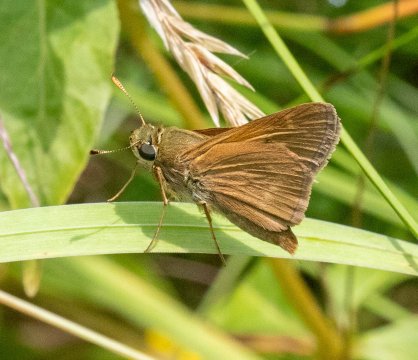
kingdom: Animalia
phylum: Arthropoda
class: Insecta
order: Lepidoptera
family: Hesperiidae
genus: Polites
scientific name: Polites
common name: Crossline Skipper
